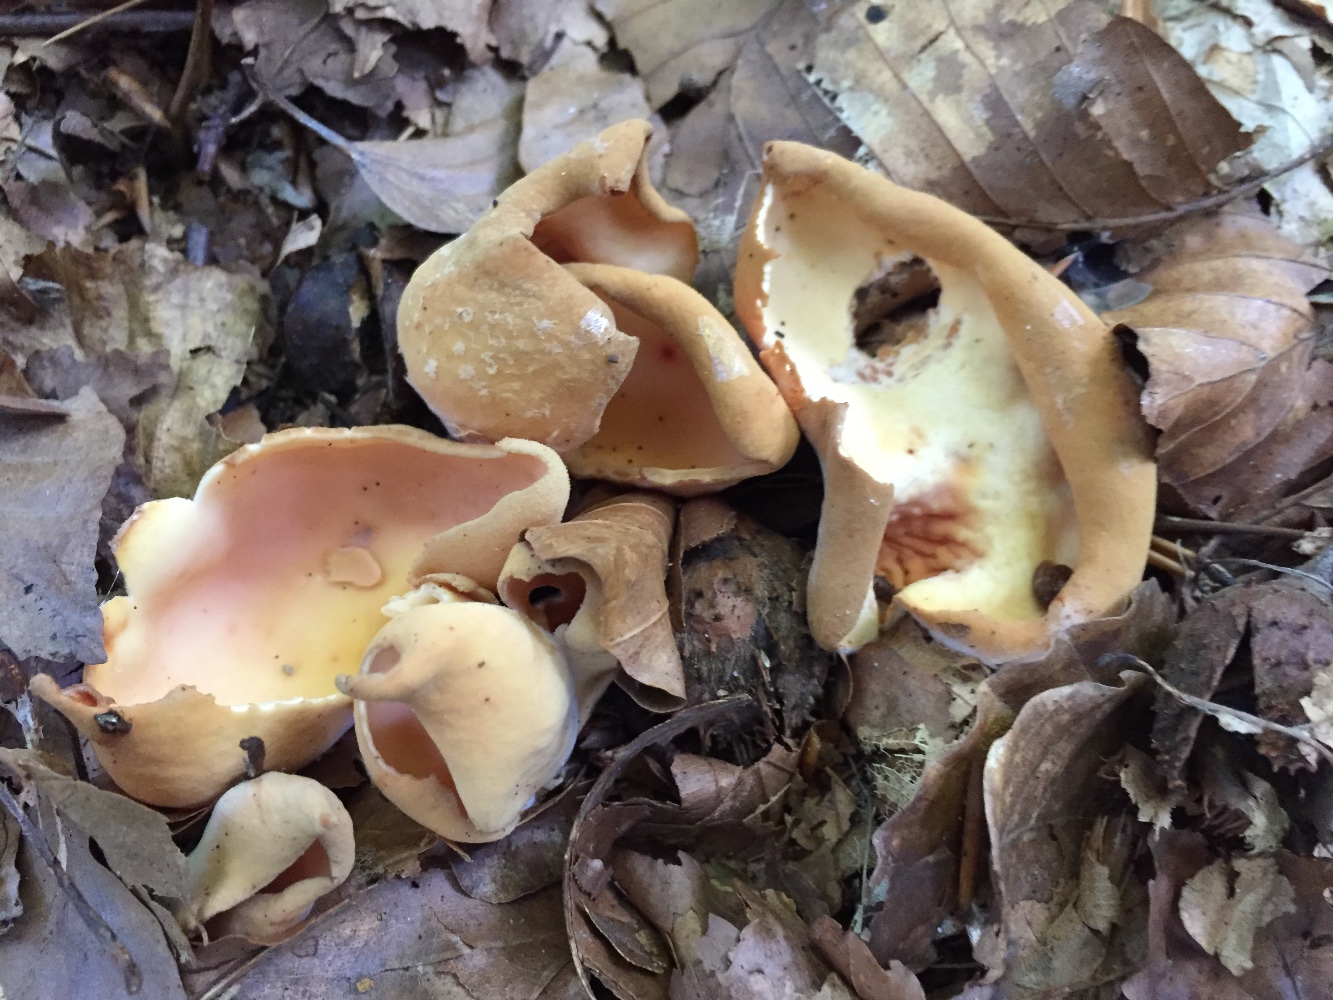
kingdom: Fungi
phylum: Ascomycota
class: Pezizomycetes
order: Pezizales
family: Otideaceae
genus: Otidea
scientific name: Otidea onotica
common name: æsel-ørebæger
